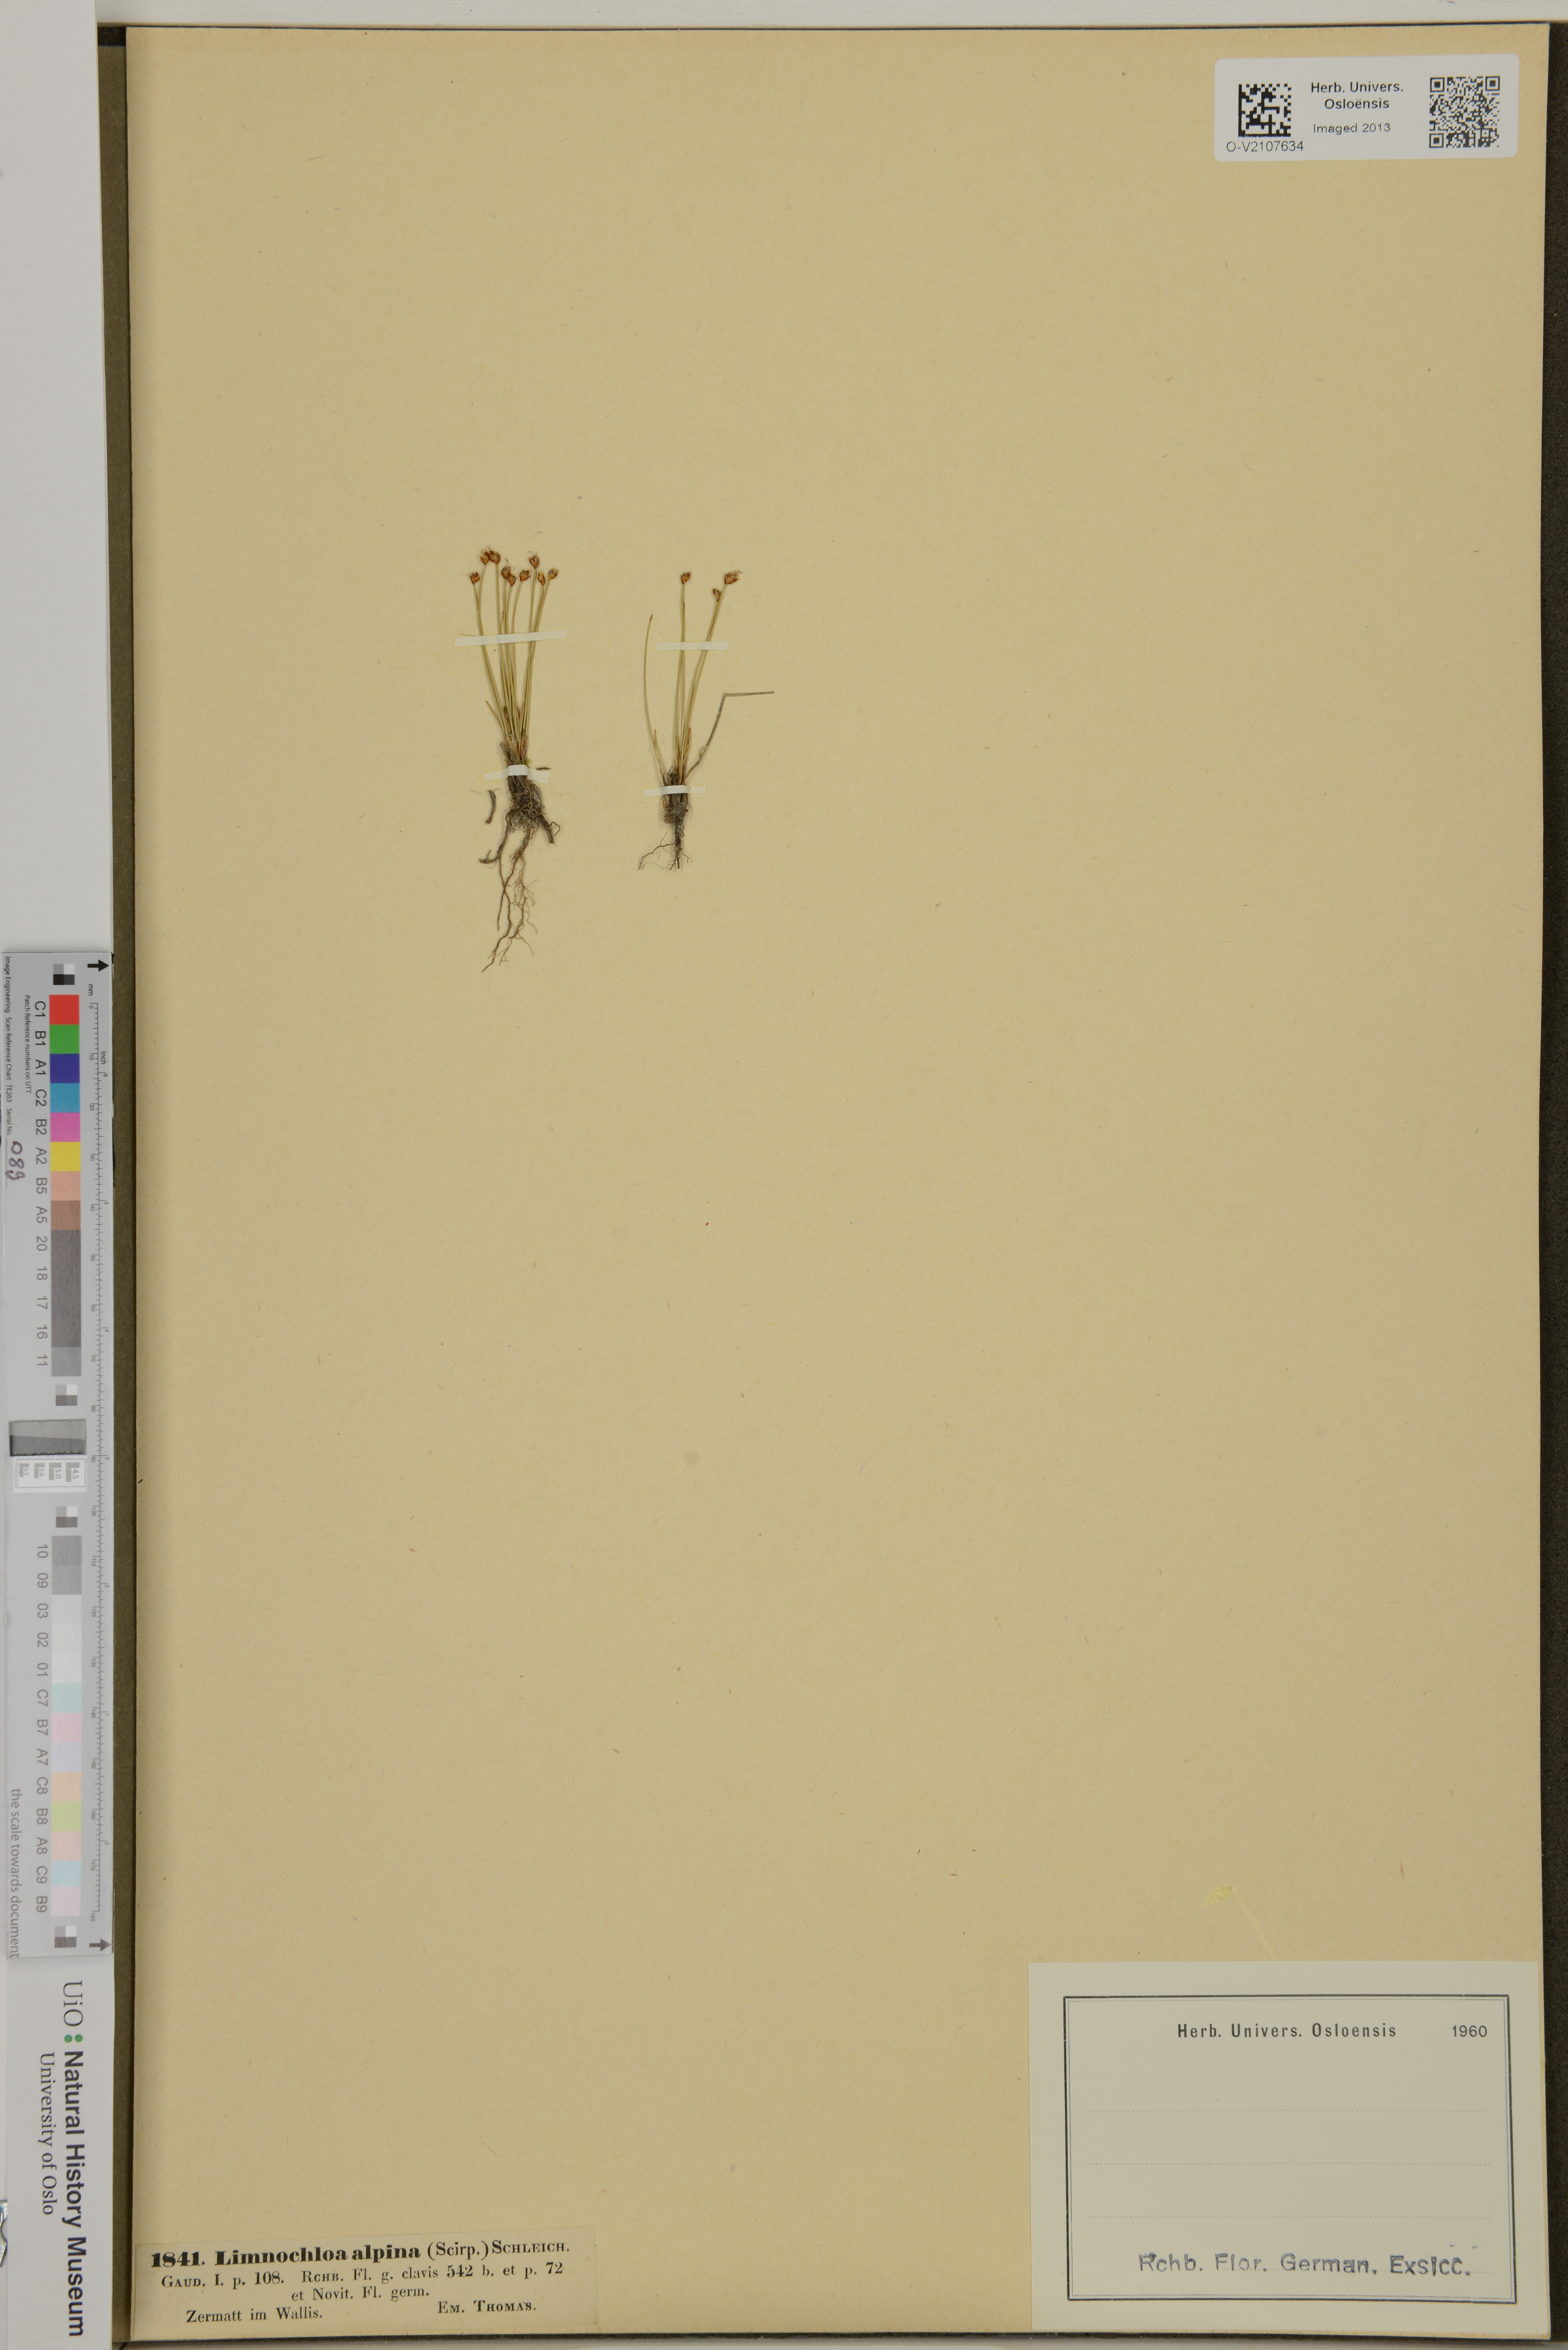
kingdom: Plantae
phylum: Tracheophyta
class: Liliopsida
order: Poales
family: Cyperaceae
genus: Trichophorum
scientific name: Trichophorum alpinum
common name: Alpine bulrush
